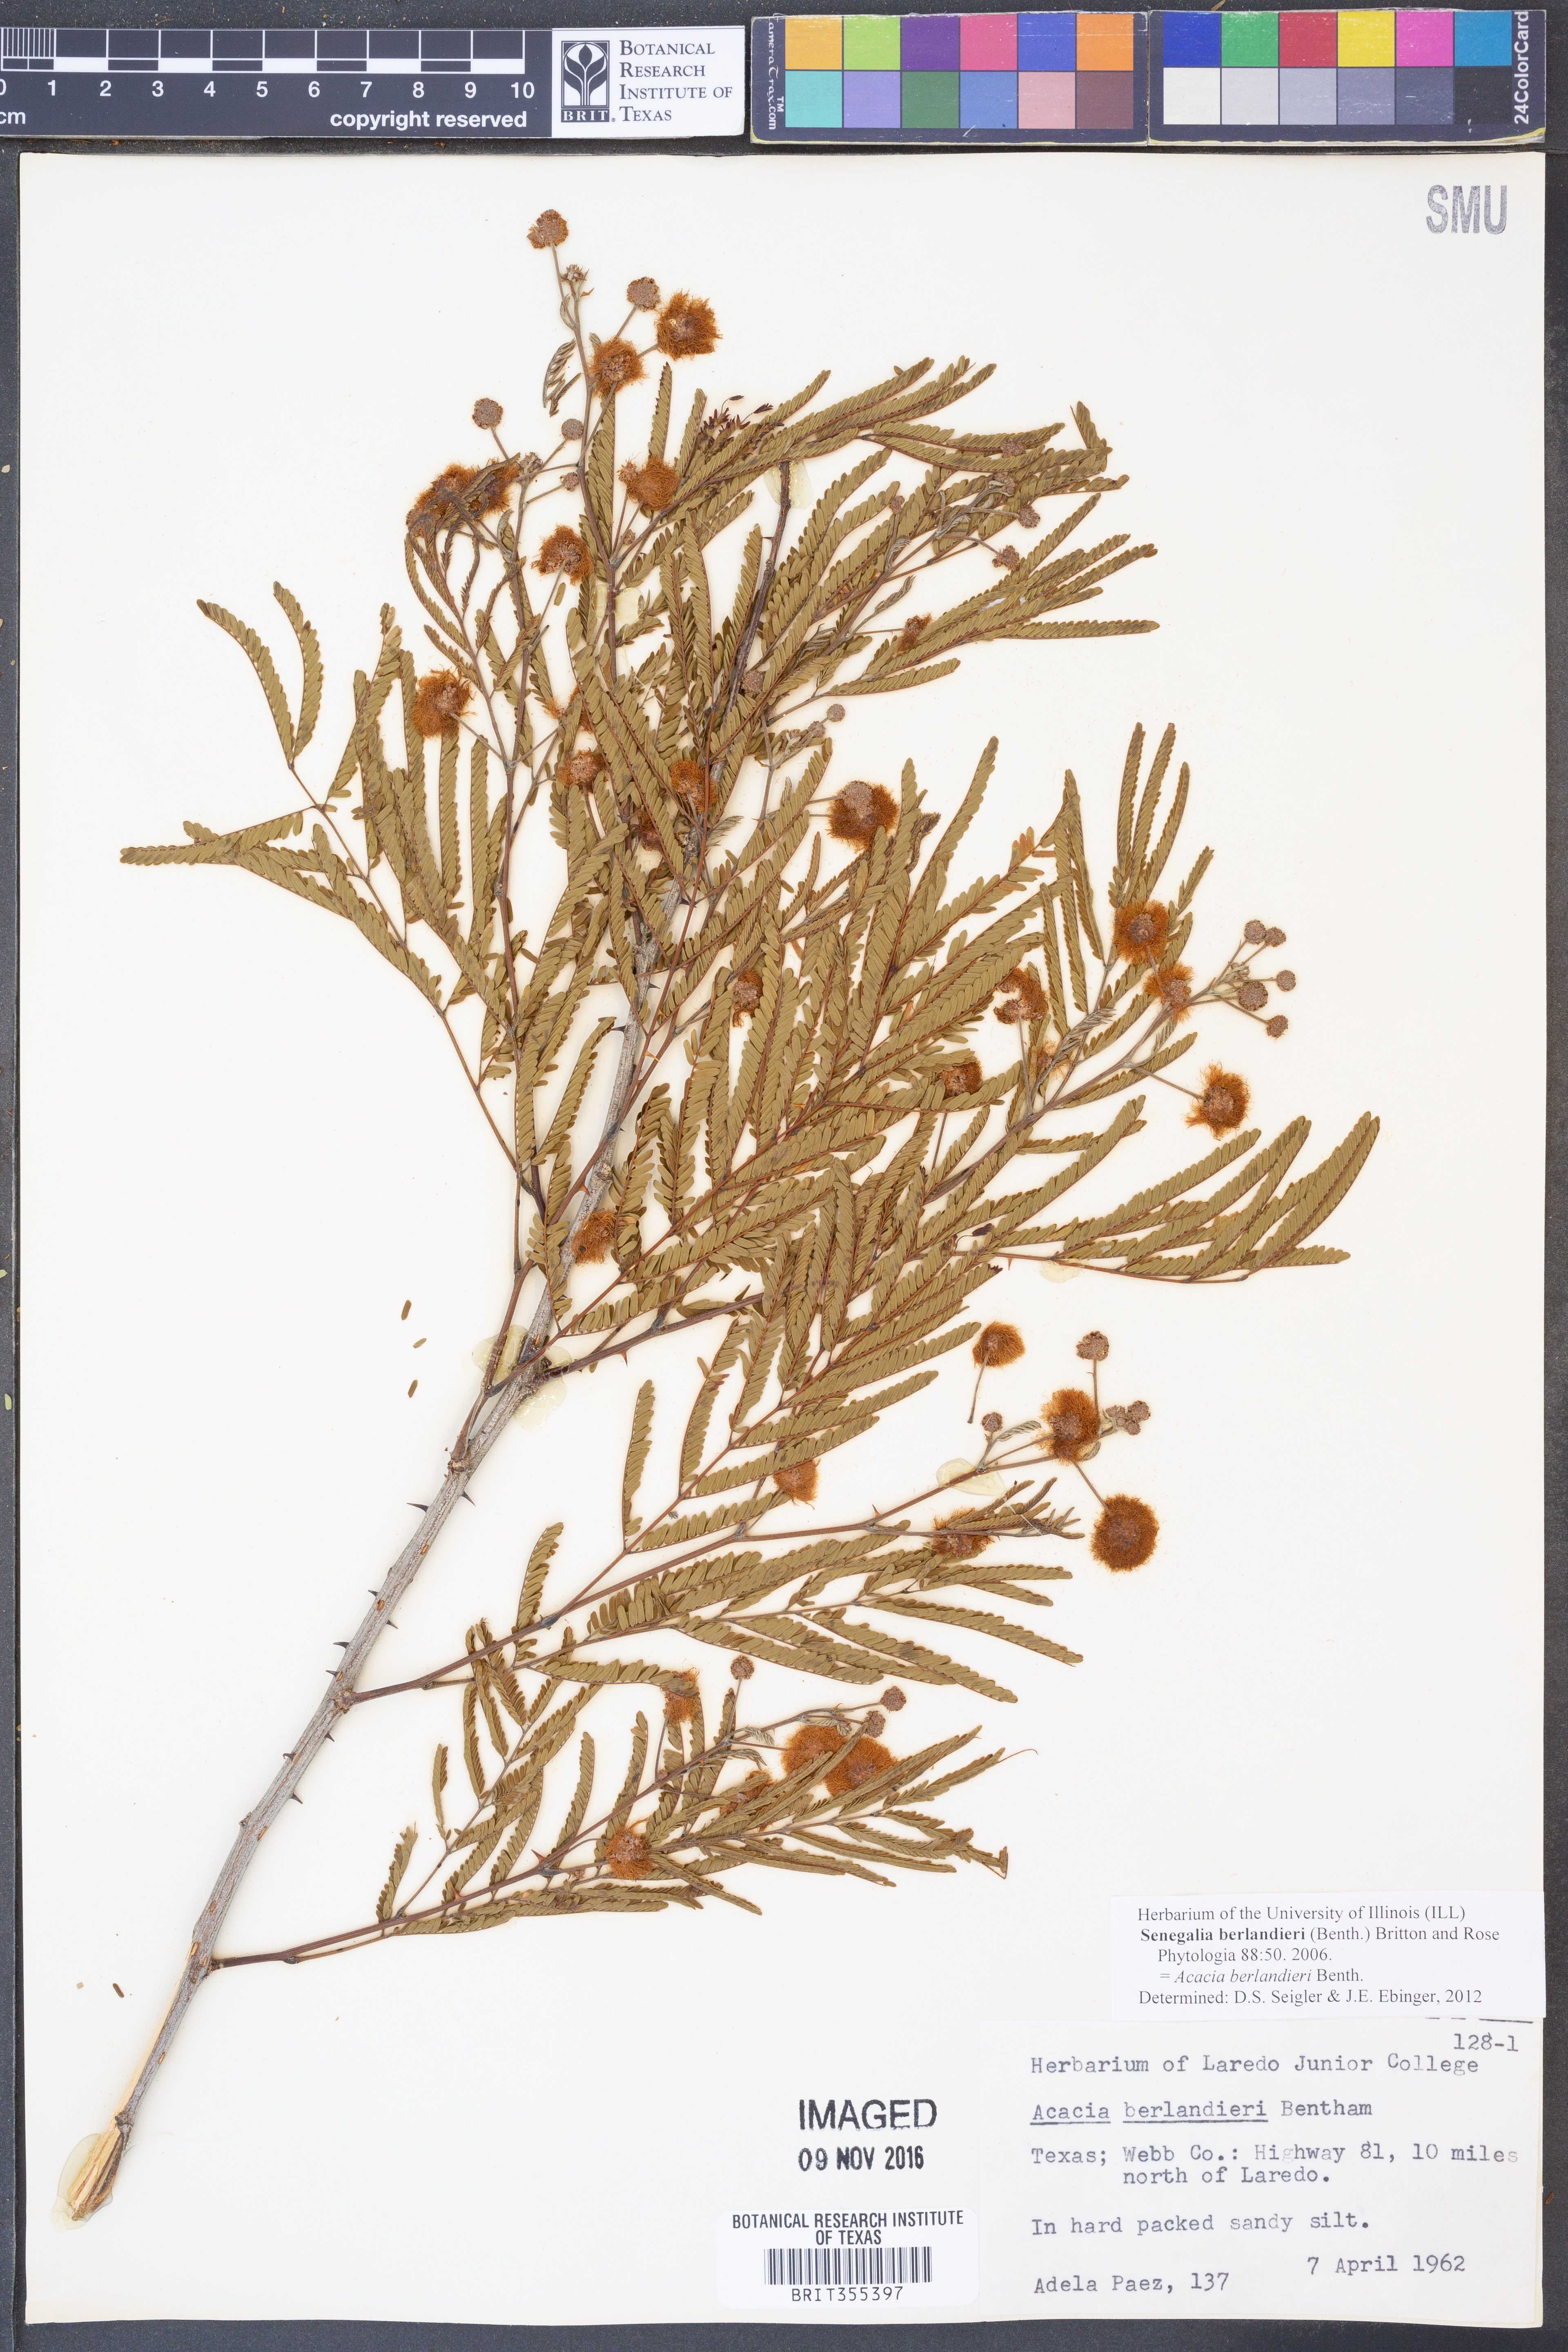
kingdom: Plantae
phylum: Tracheophyta
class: Magnoliopsida
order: Fabales
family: Fabaceae
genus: Senegalia
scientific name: Senegalia berlandieri
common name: Berlandier acacia
